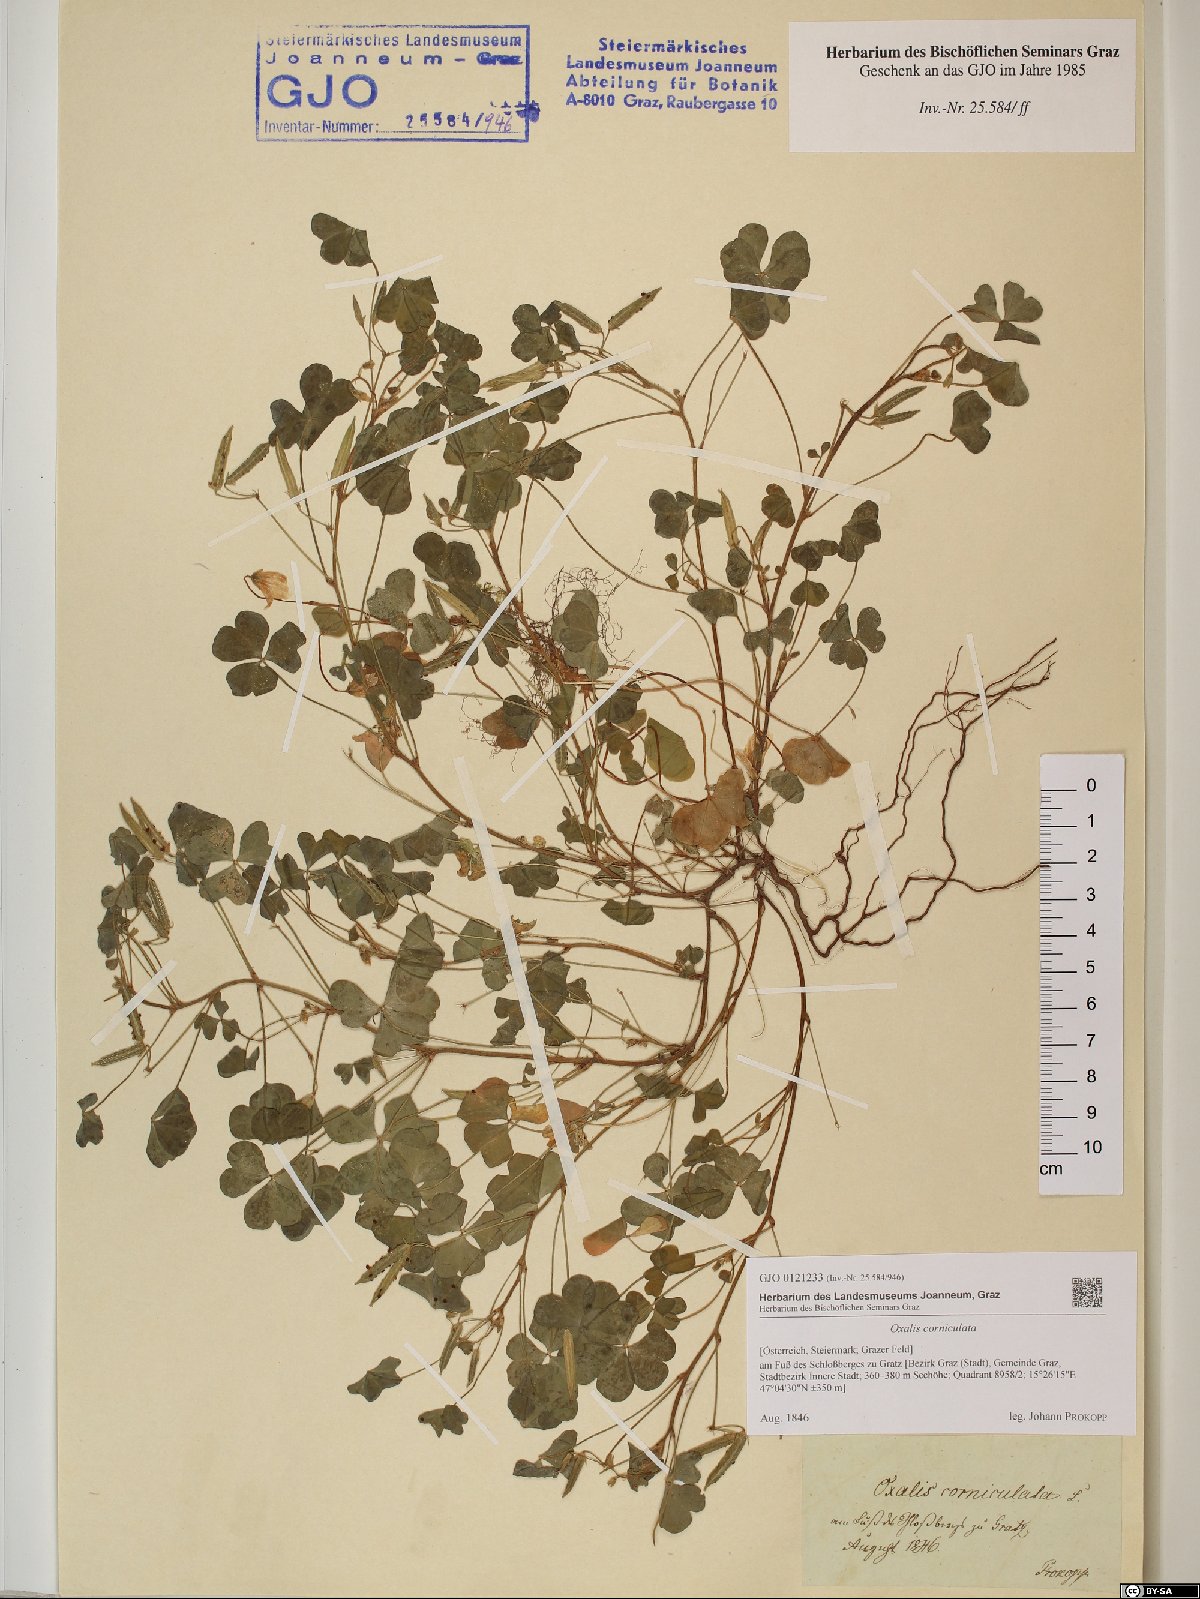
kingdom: Plantae
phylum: Tracheophyta
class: Magnoliopsida
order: Oxalidales
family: Oxalidaceae
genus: Oxalis
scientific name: Oxalis corniculata
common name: Procumbent yellow-sorrel
